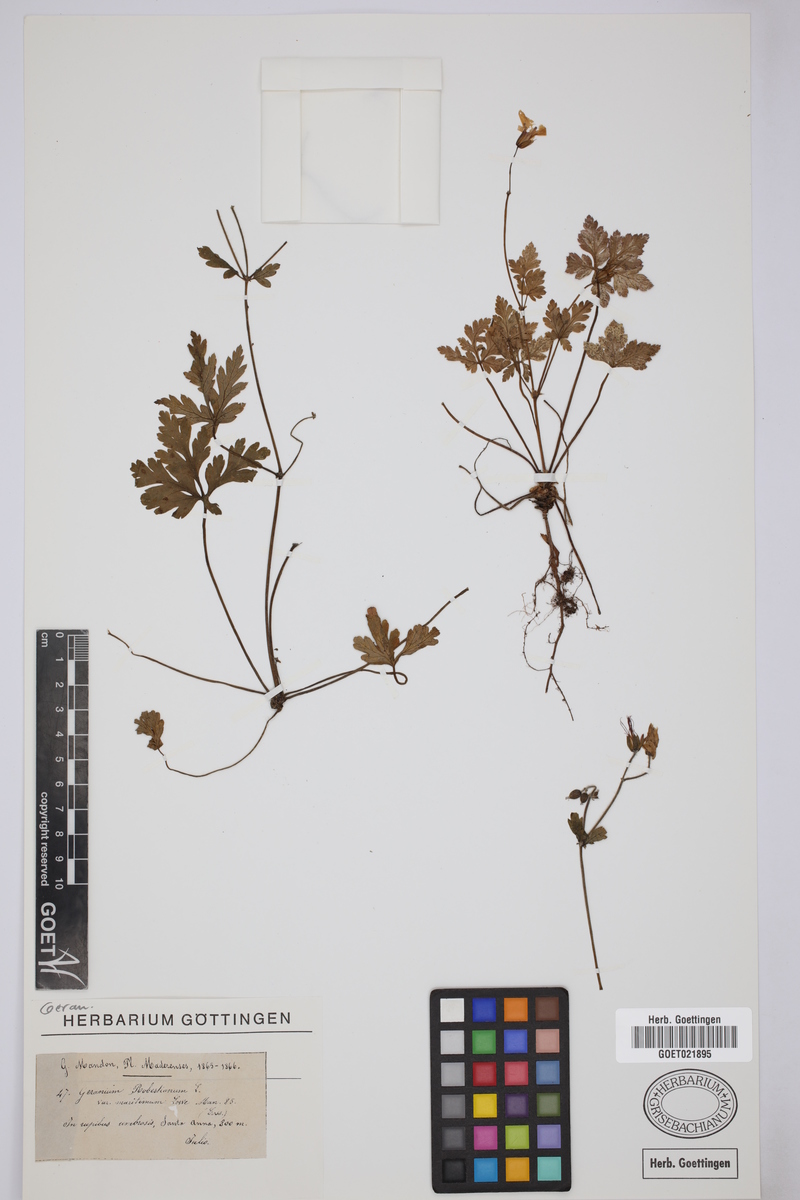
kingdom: Plantae
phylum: Tracheophyta
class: Magnoliopsida
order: Geraniales
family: Geraniaceae
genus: Geranium
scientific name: Geranium purpureum
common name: Little-robin
